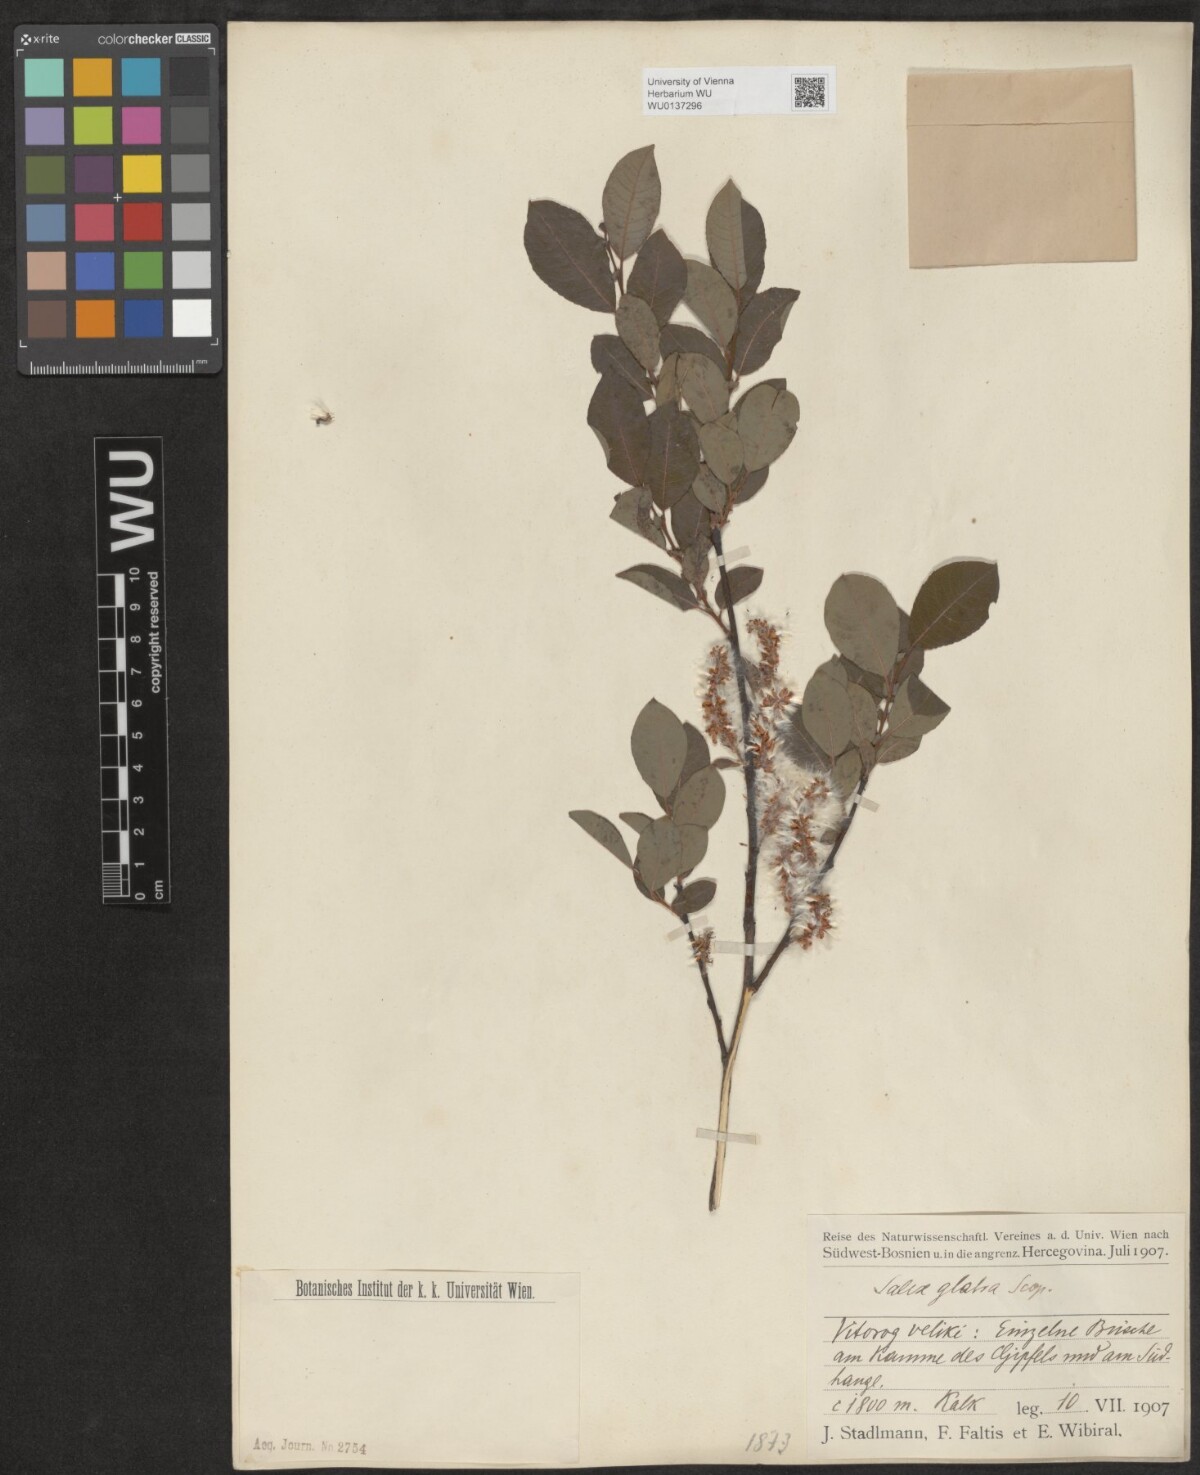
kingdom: Plantae
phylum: Tracheophyta
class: Magnoliopsida
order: Malpighiales
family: Salicaceae
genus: Salix
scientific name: Salix glabra
